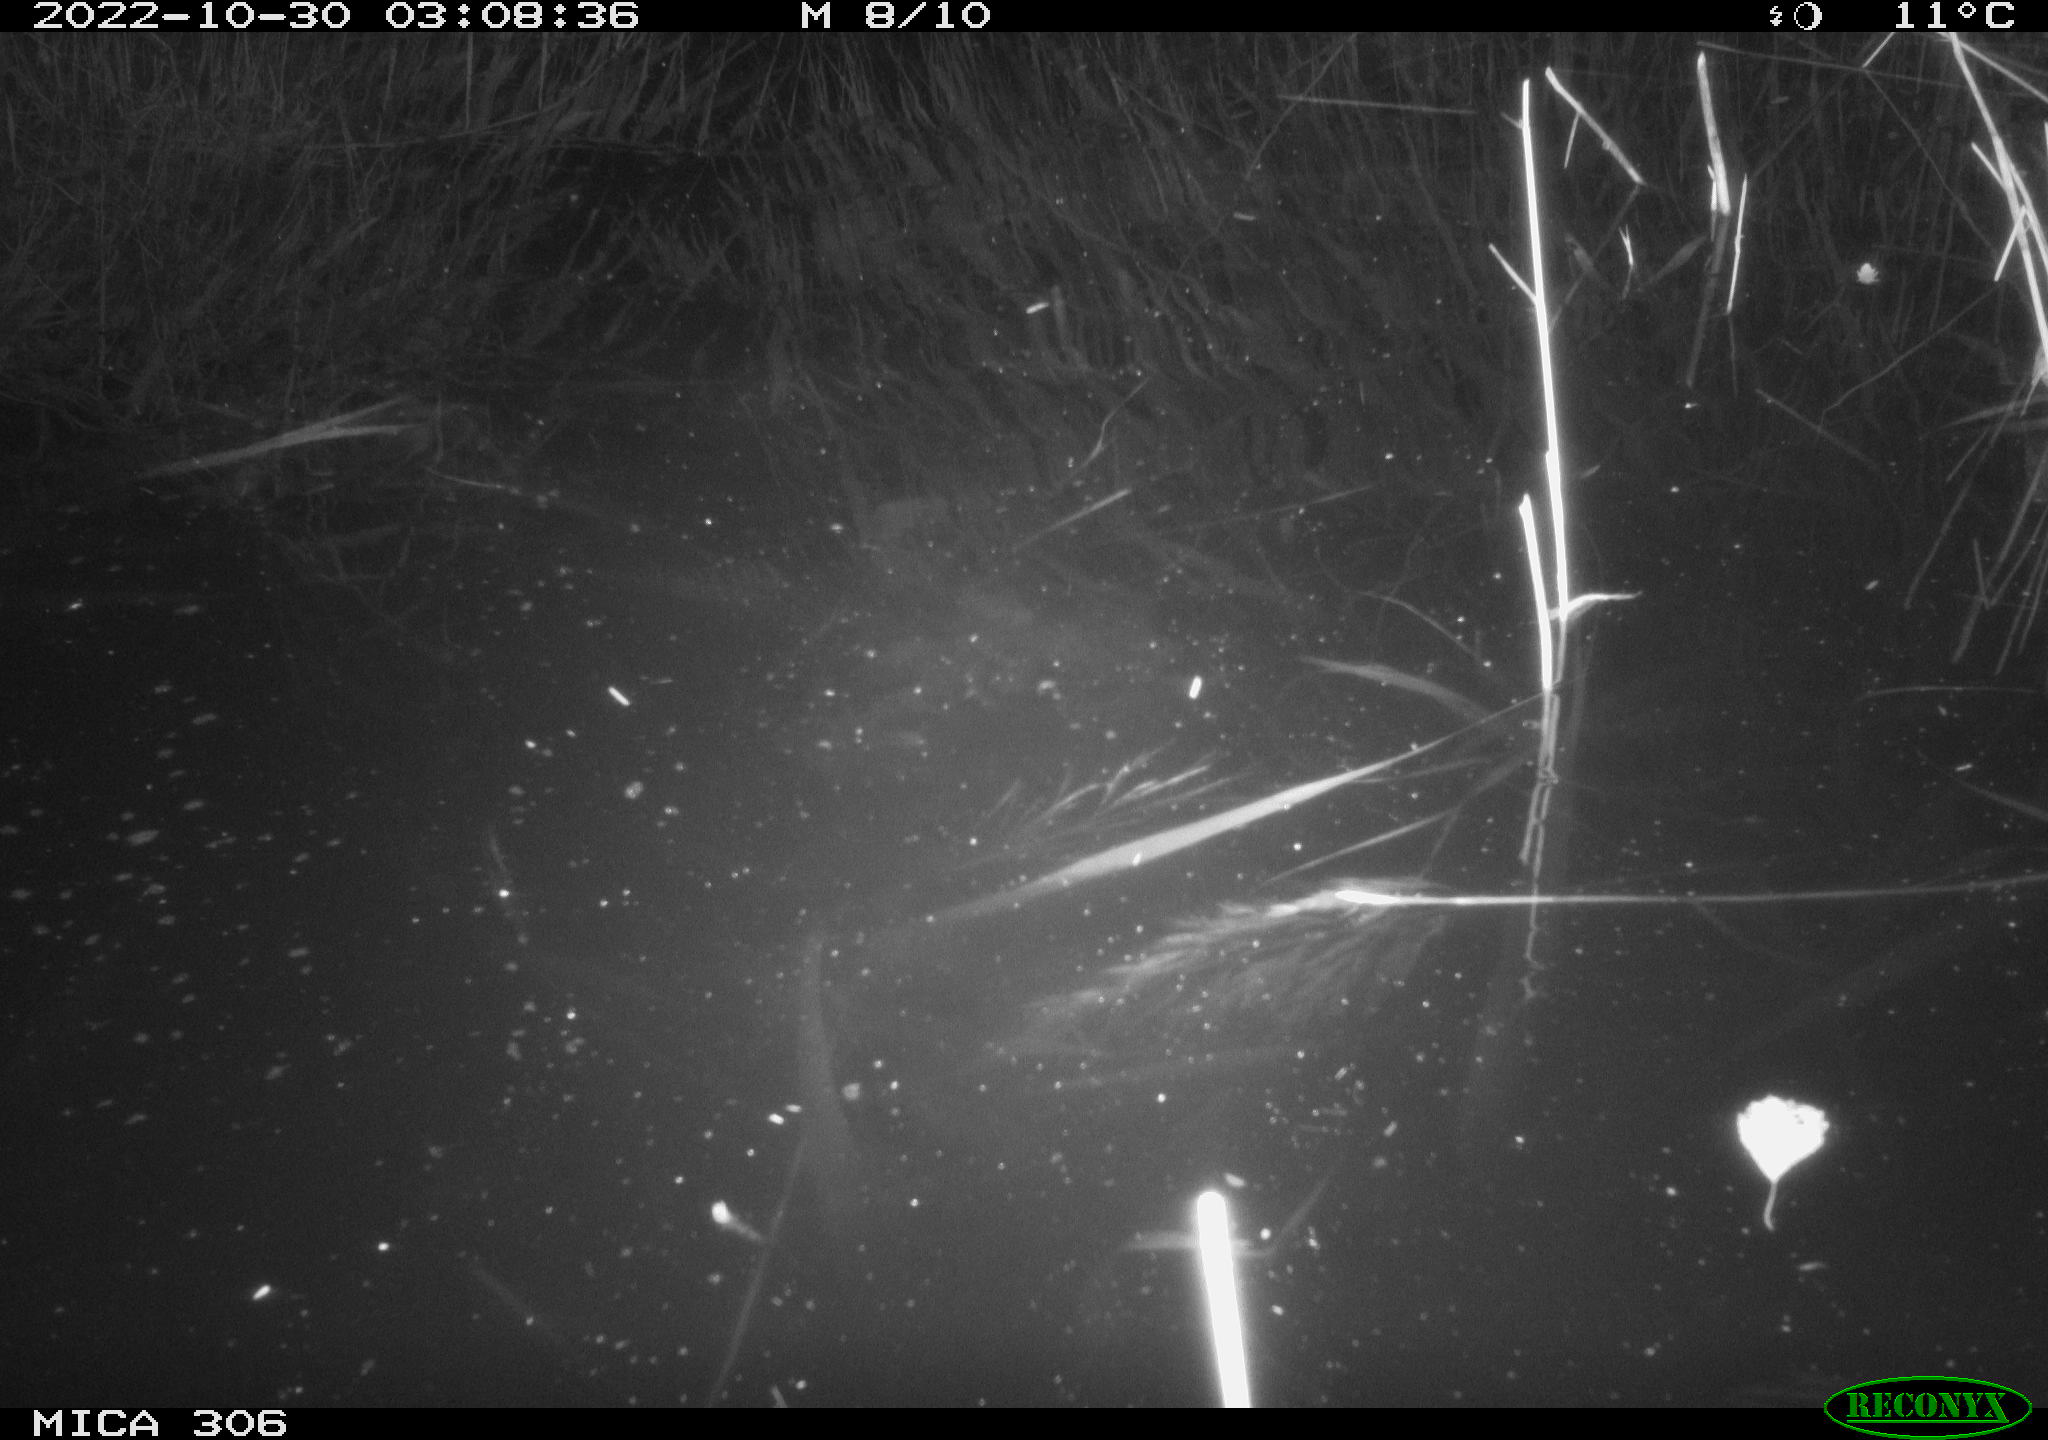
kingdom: Animalia
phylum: Chordata
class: Mammalia
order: Rodentia
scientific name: Rodentia
